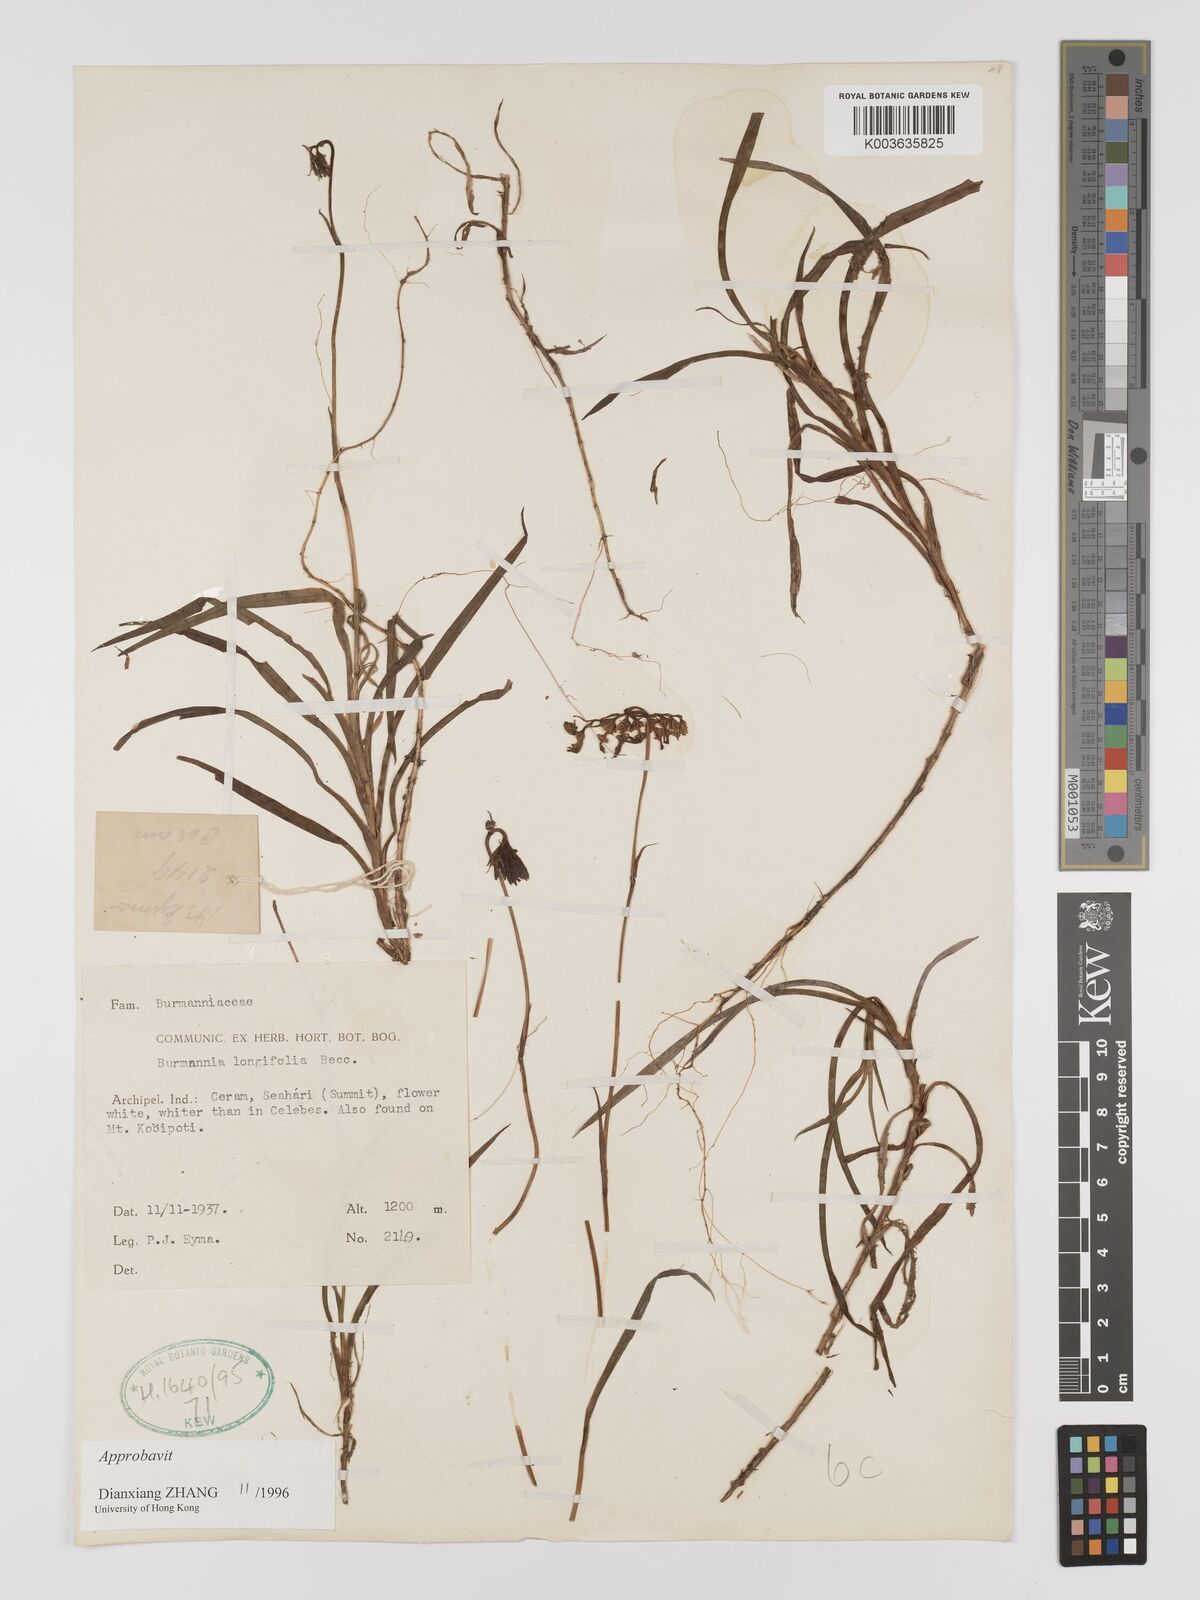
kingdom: Plantae
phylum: Tracheophyta
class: Liliopsida
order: Dioscoreales
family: Burmanniaceae
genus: Burmannia
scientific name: Burmannia longifolia
